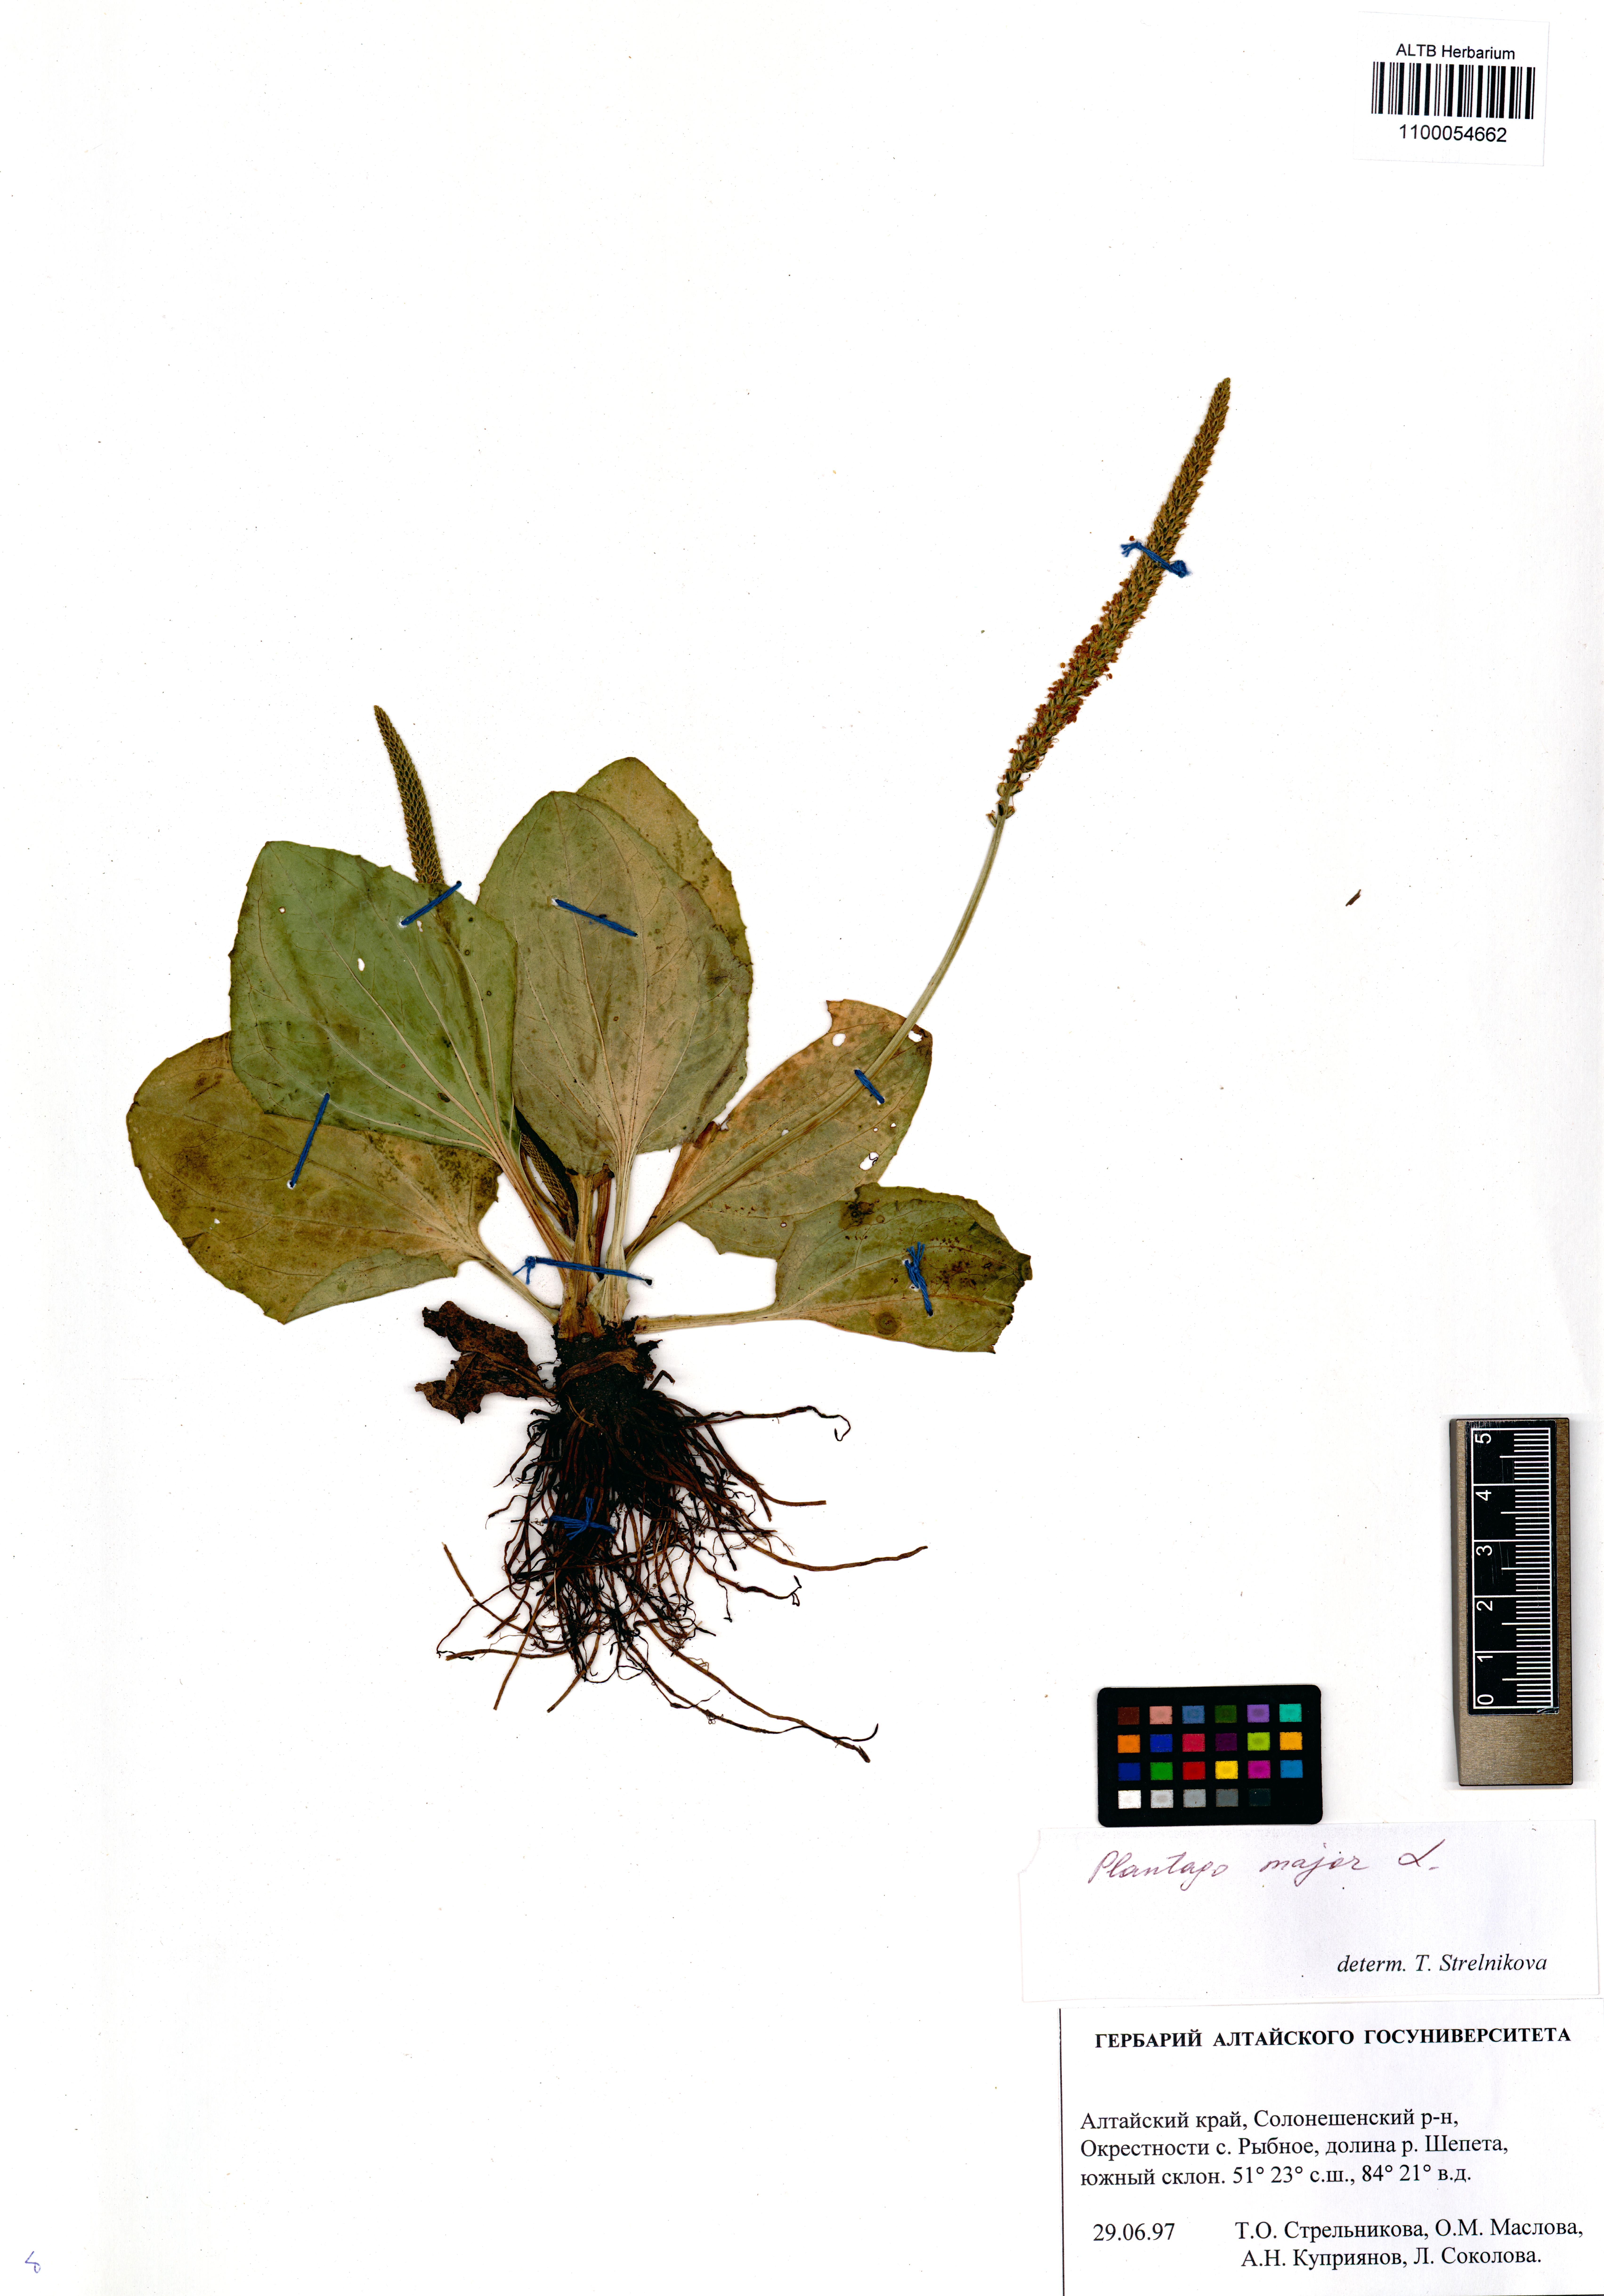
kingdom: Plantae
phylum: Tracheophyta
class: Magnoliopsida
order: Lamiales
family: Plantaginaceae
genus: Plantago
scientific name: Plantago major
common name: Common plantain
